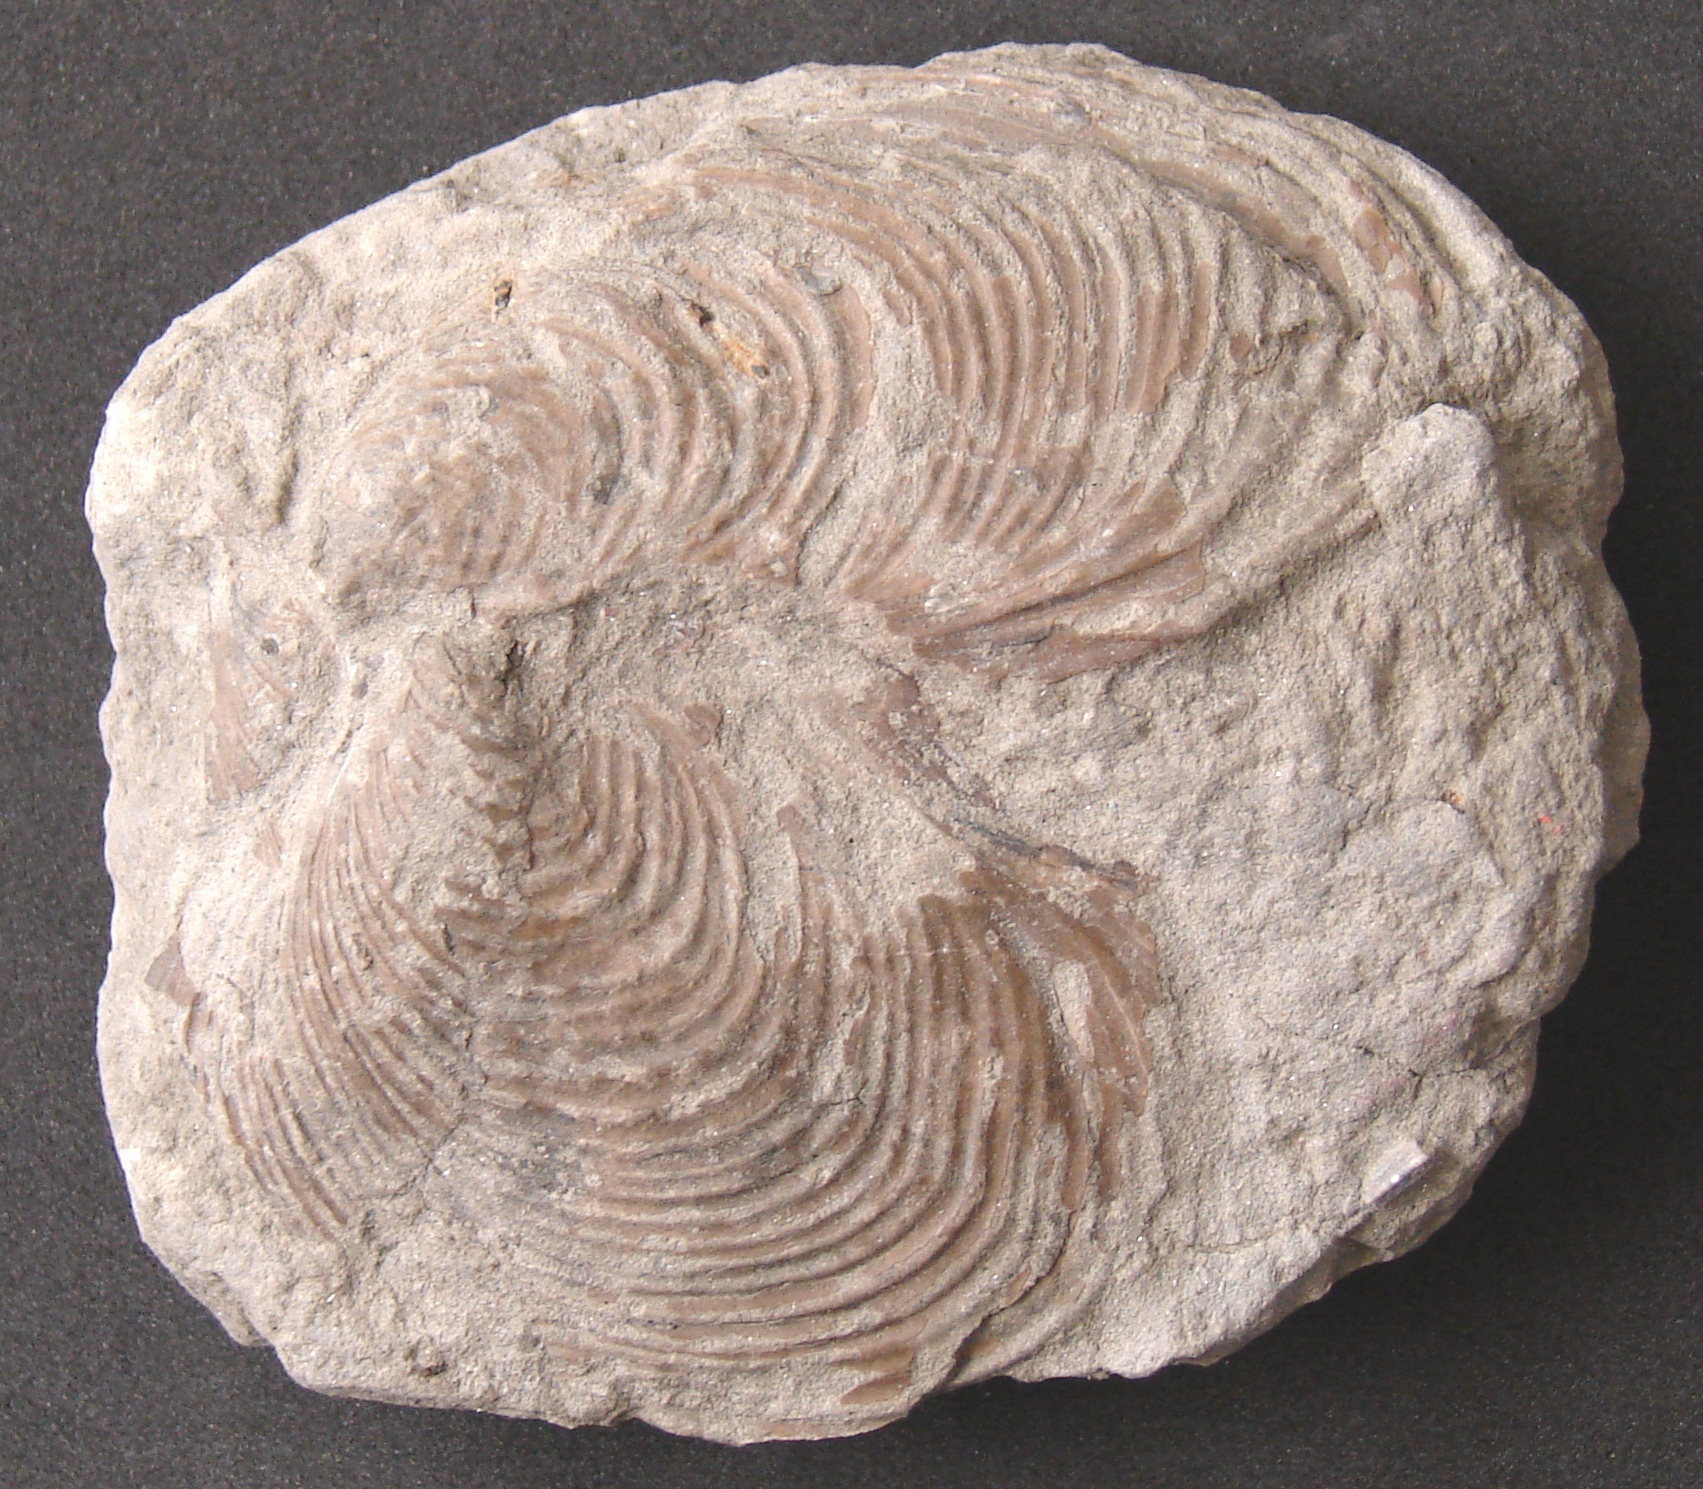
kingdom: Animalia
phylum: Mollusca
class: Bivalvia
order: Myalinida
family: Inoceramidae
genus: Inoceramus
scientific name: Inoceramus dubius
